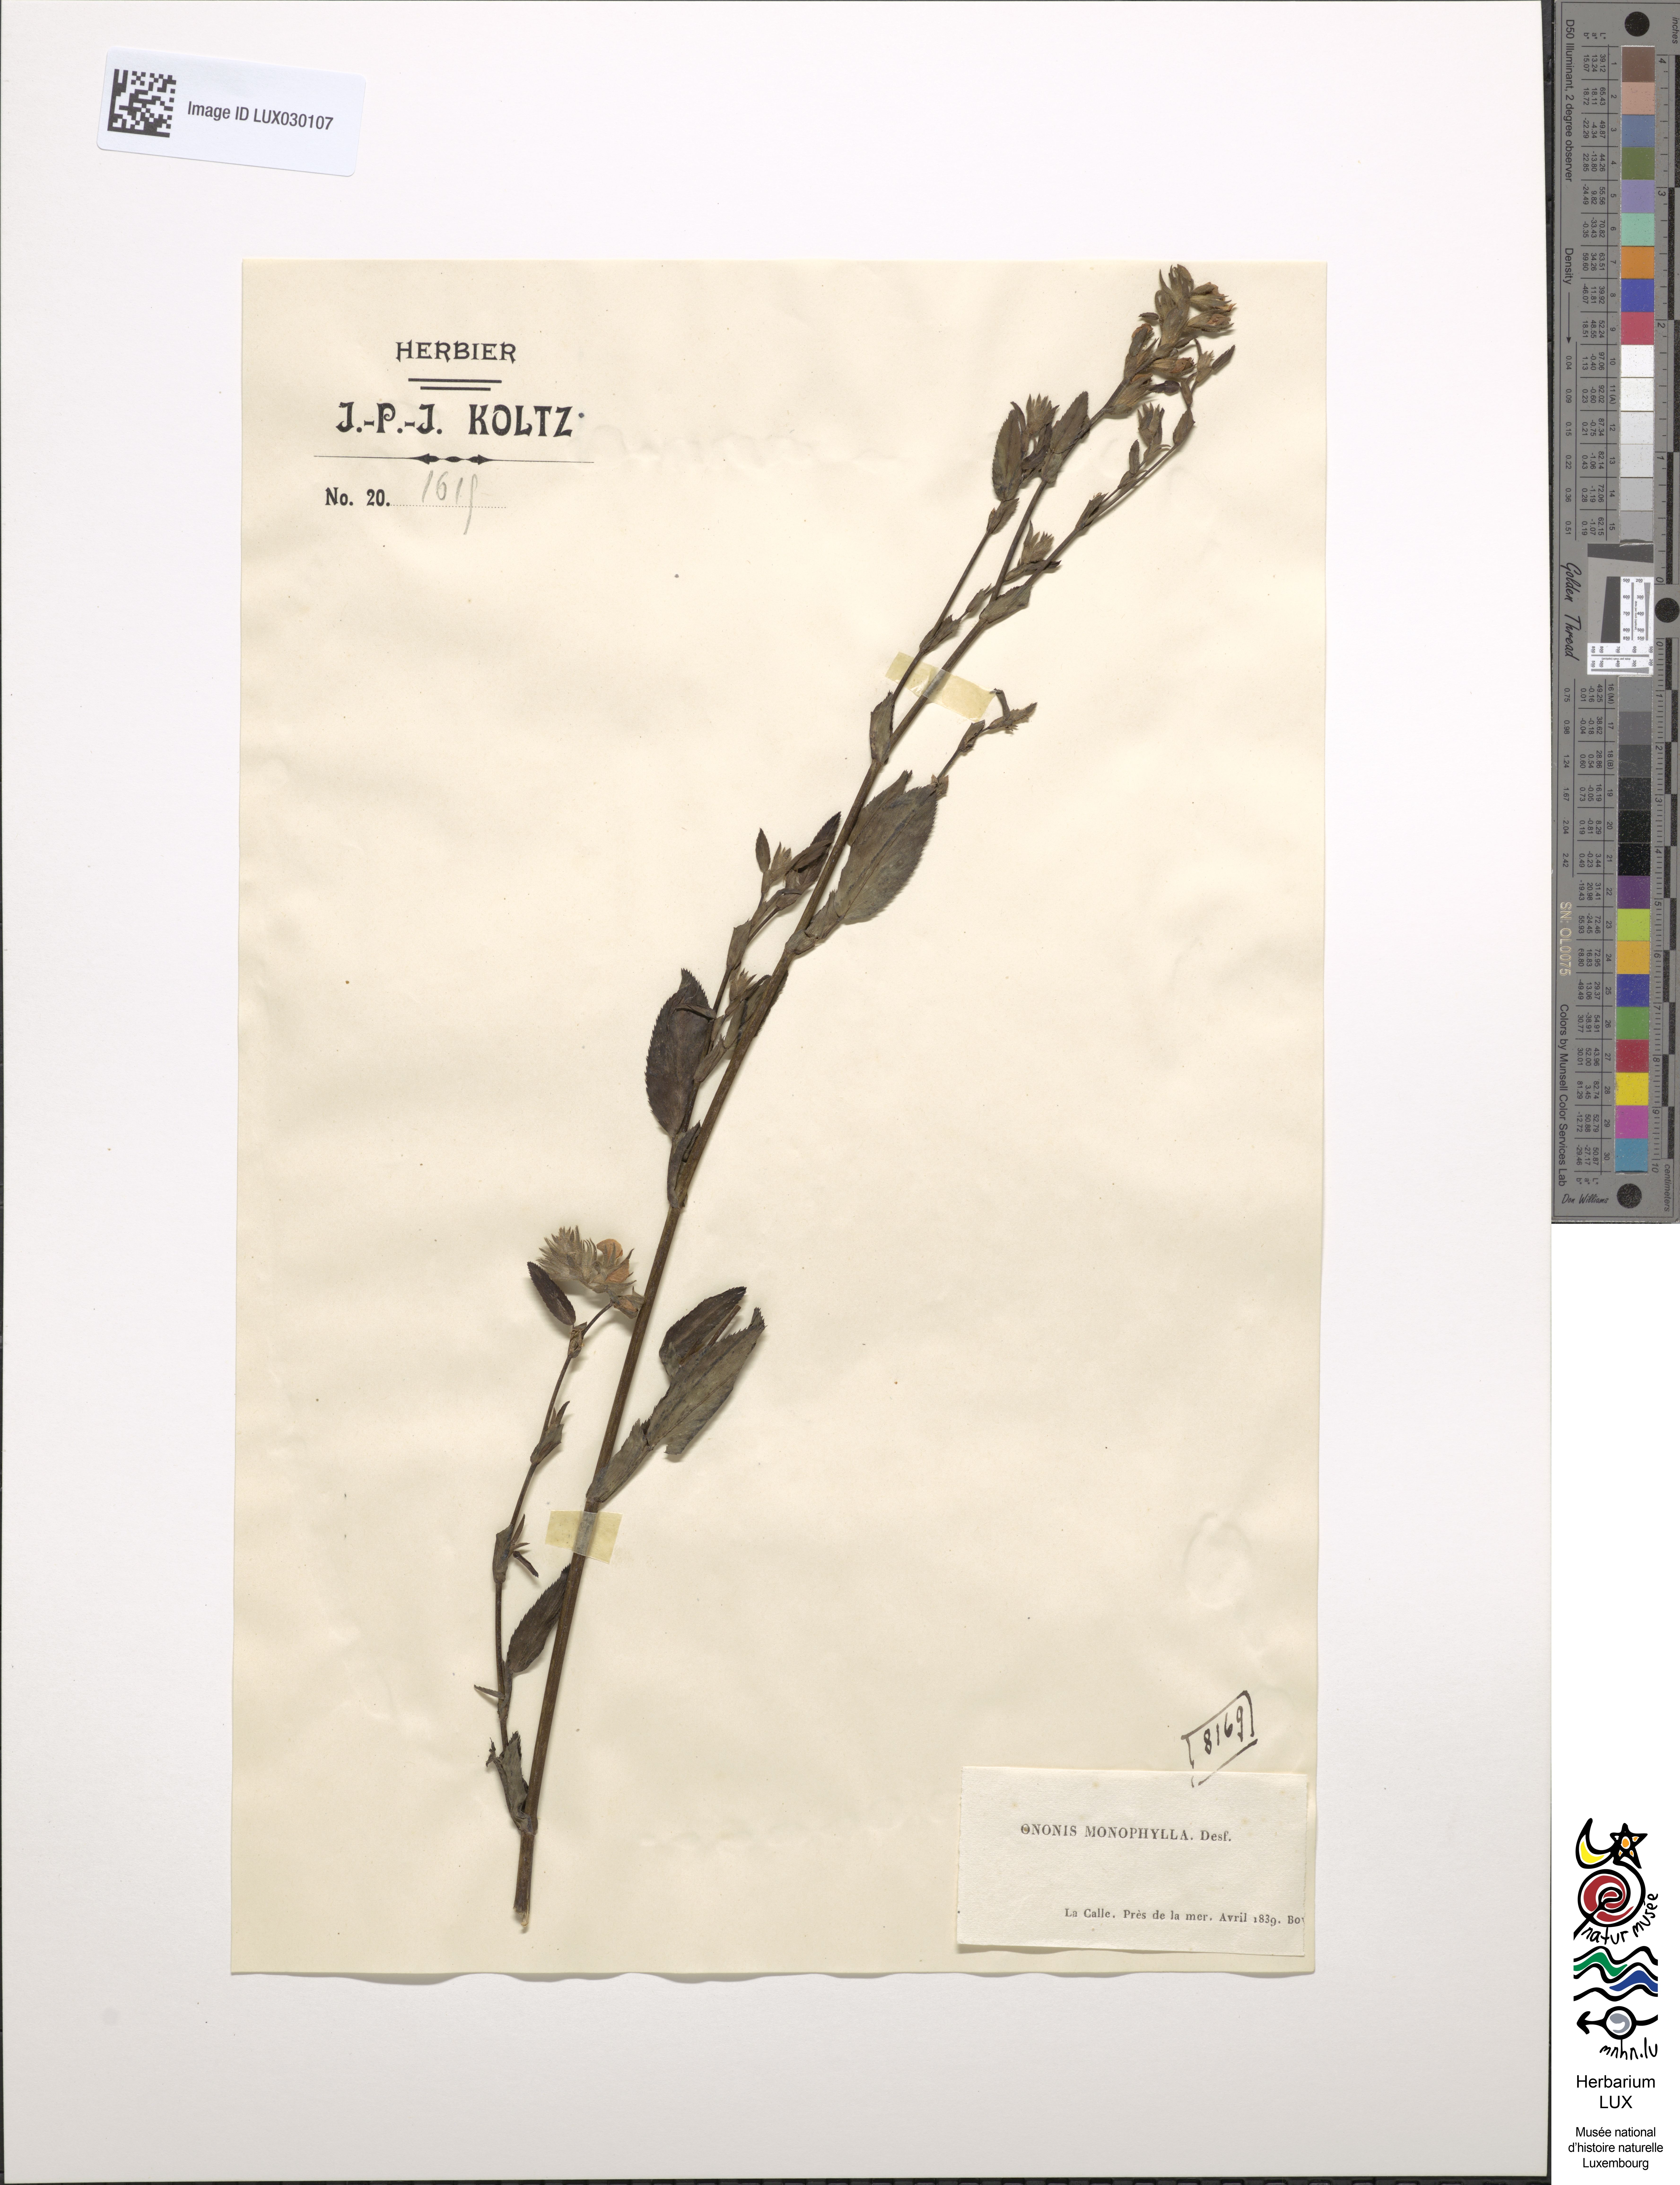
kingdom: Plantae
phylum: Tracheophyta
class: Magnoliopsida
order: Fabales
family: Fabaceae
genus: Ononis
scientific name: Ononis alba
